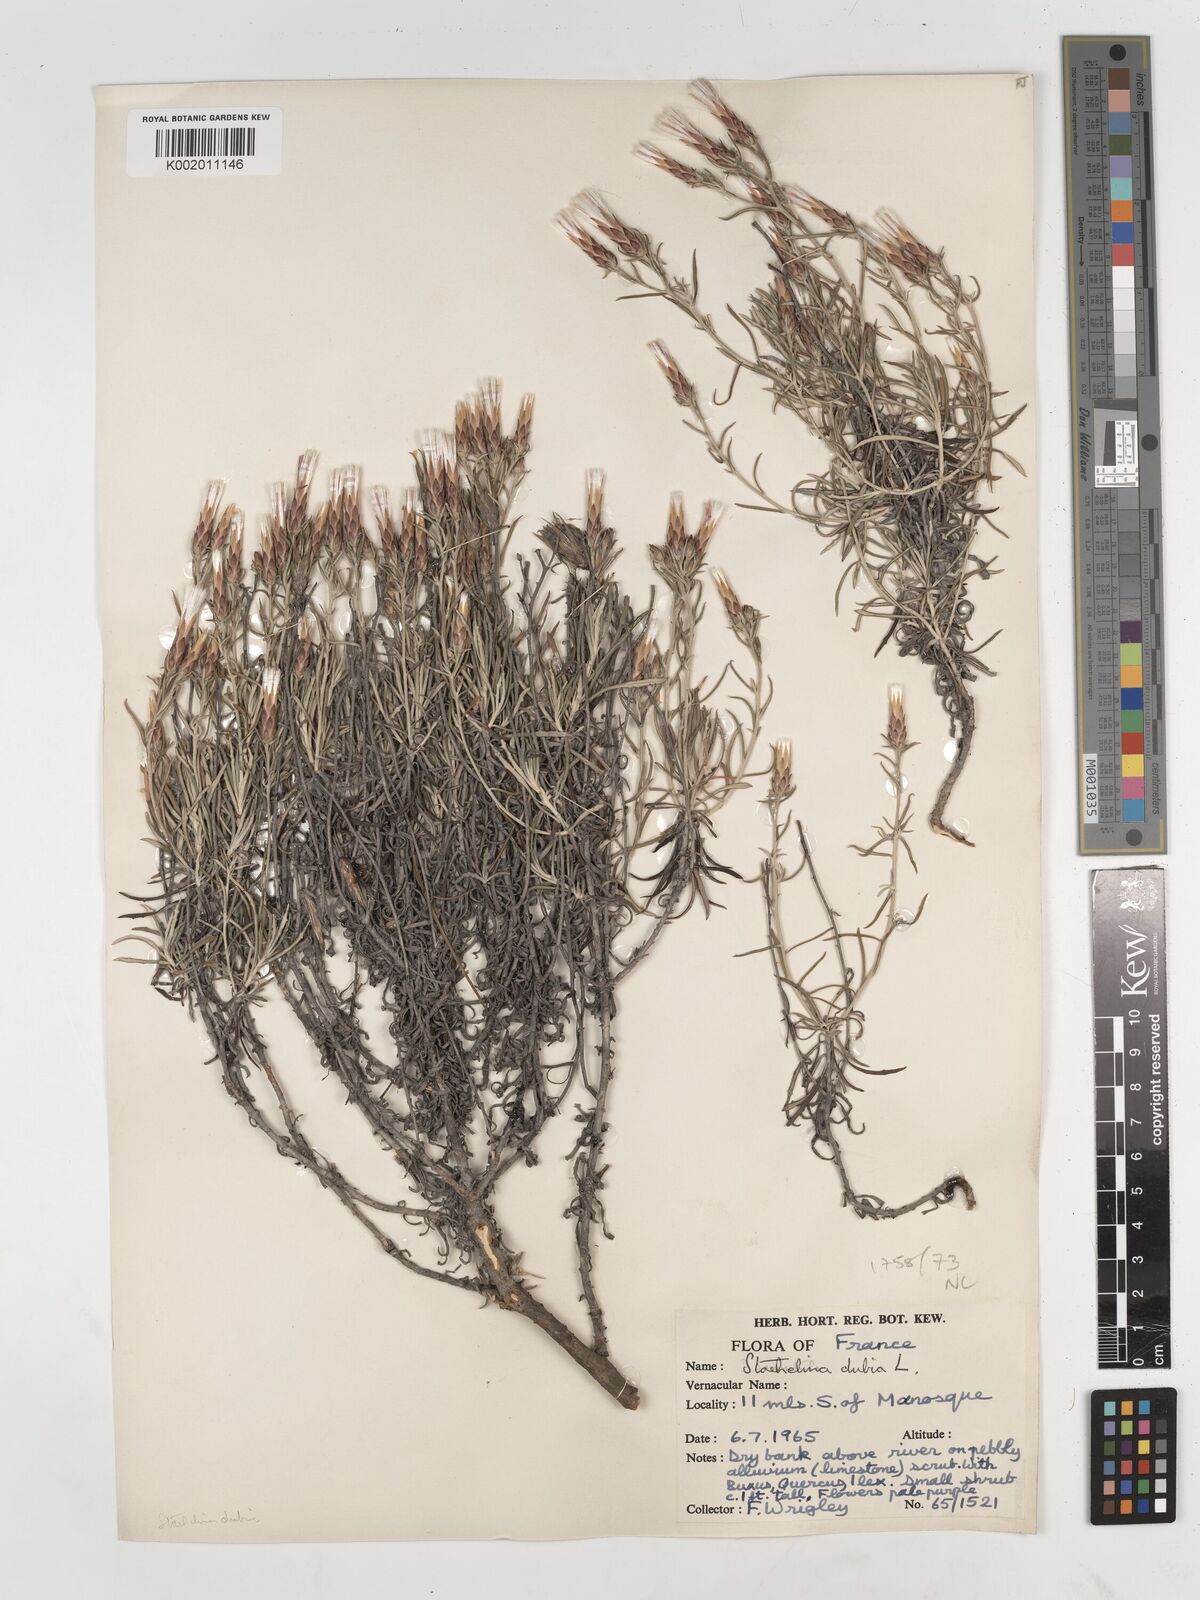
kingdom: Plantae
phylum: Tracheophyta
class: Magnoliopsida
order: Asterales
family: Asteraceae
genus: Staehelina
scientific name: Staehelina dubia
